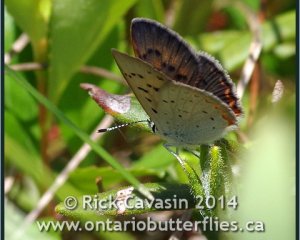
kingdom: Animalia
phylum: Arthropoda
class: Insecta
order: Lepidoptera
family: Sesiidae
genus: Sesia
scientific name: Sesia Lycaena epixanthe
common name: Bog Copper
